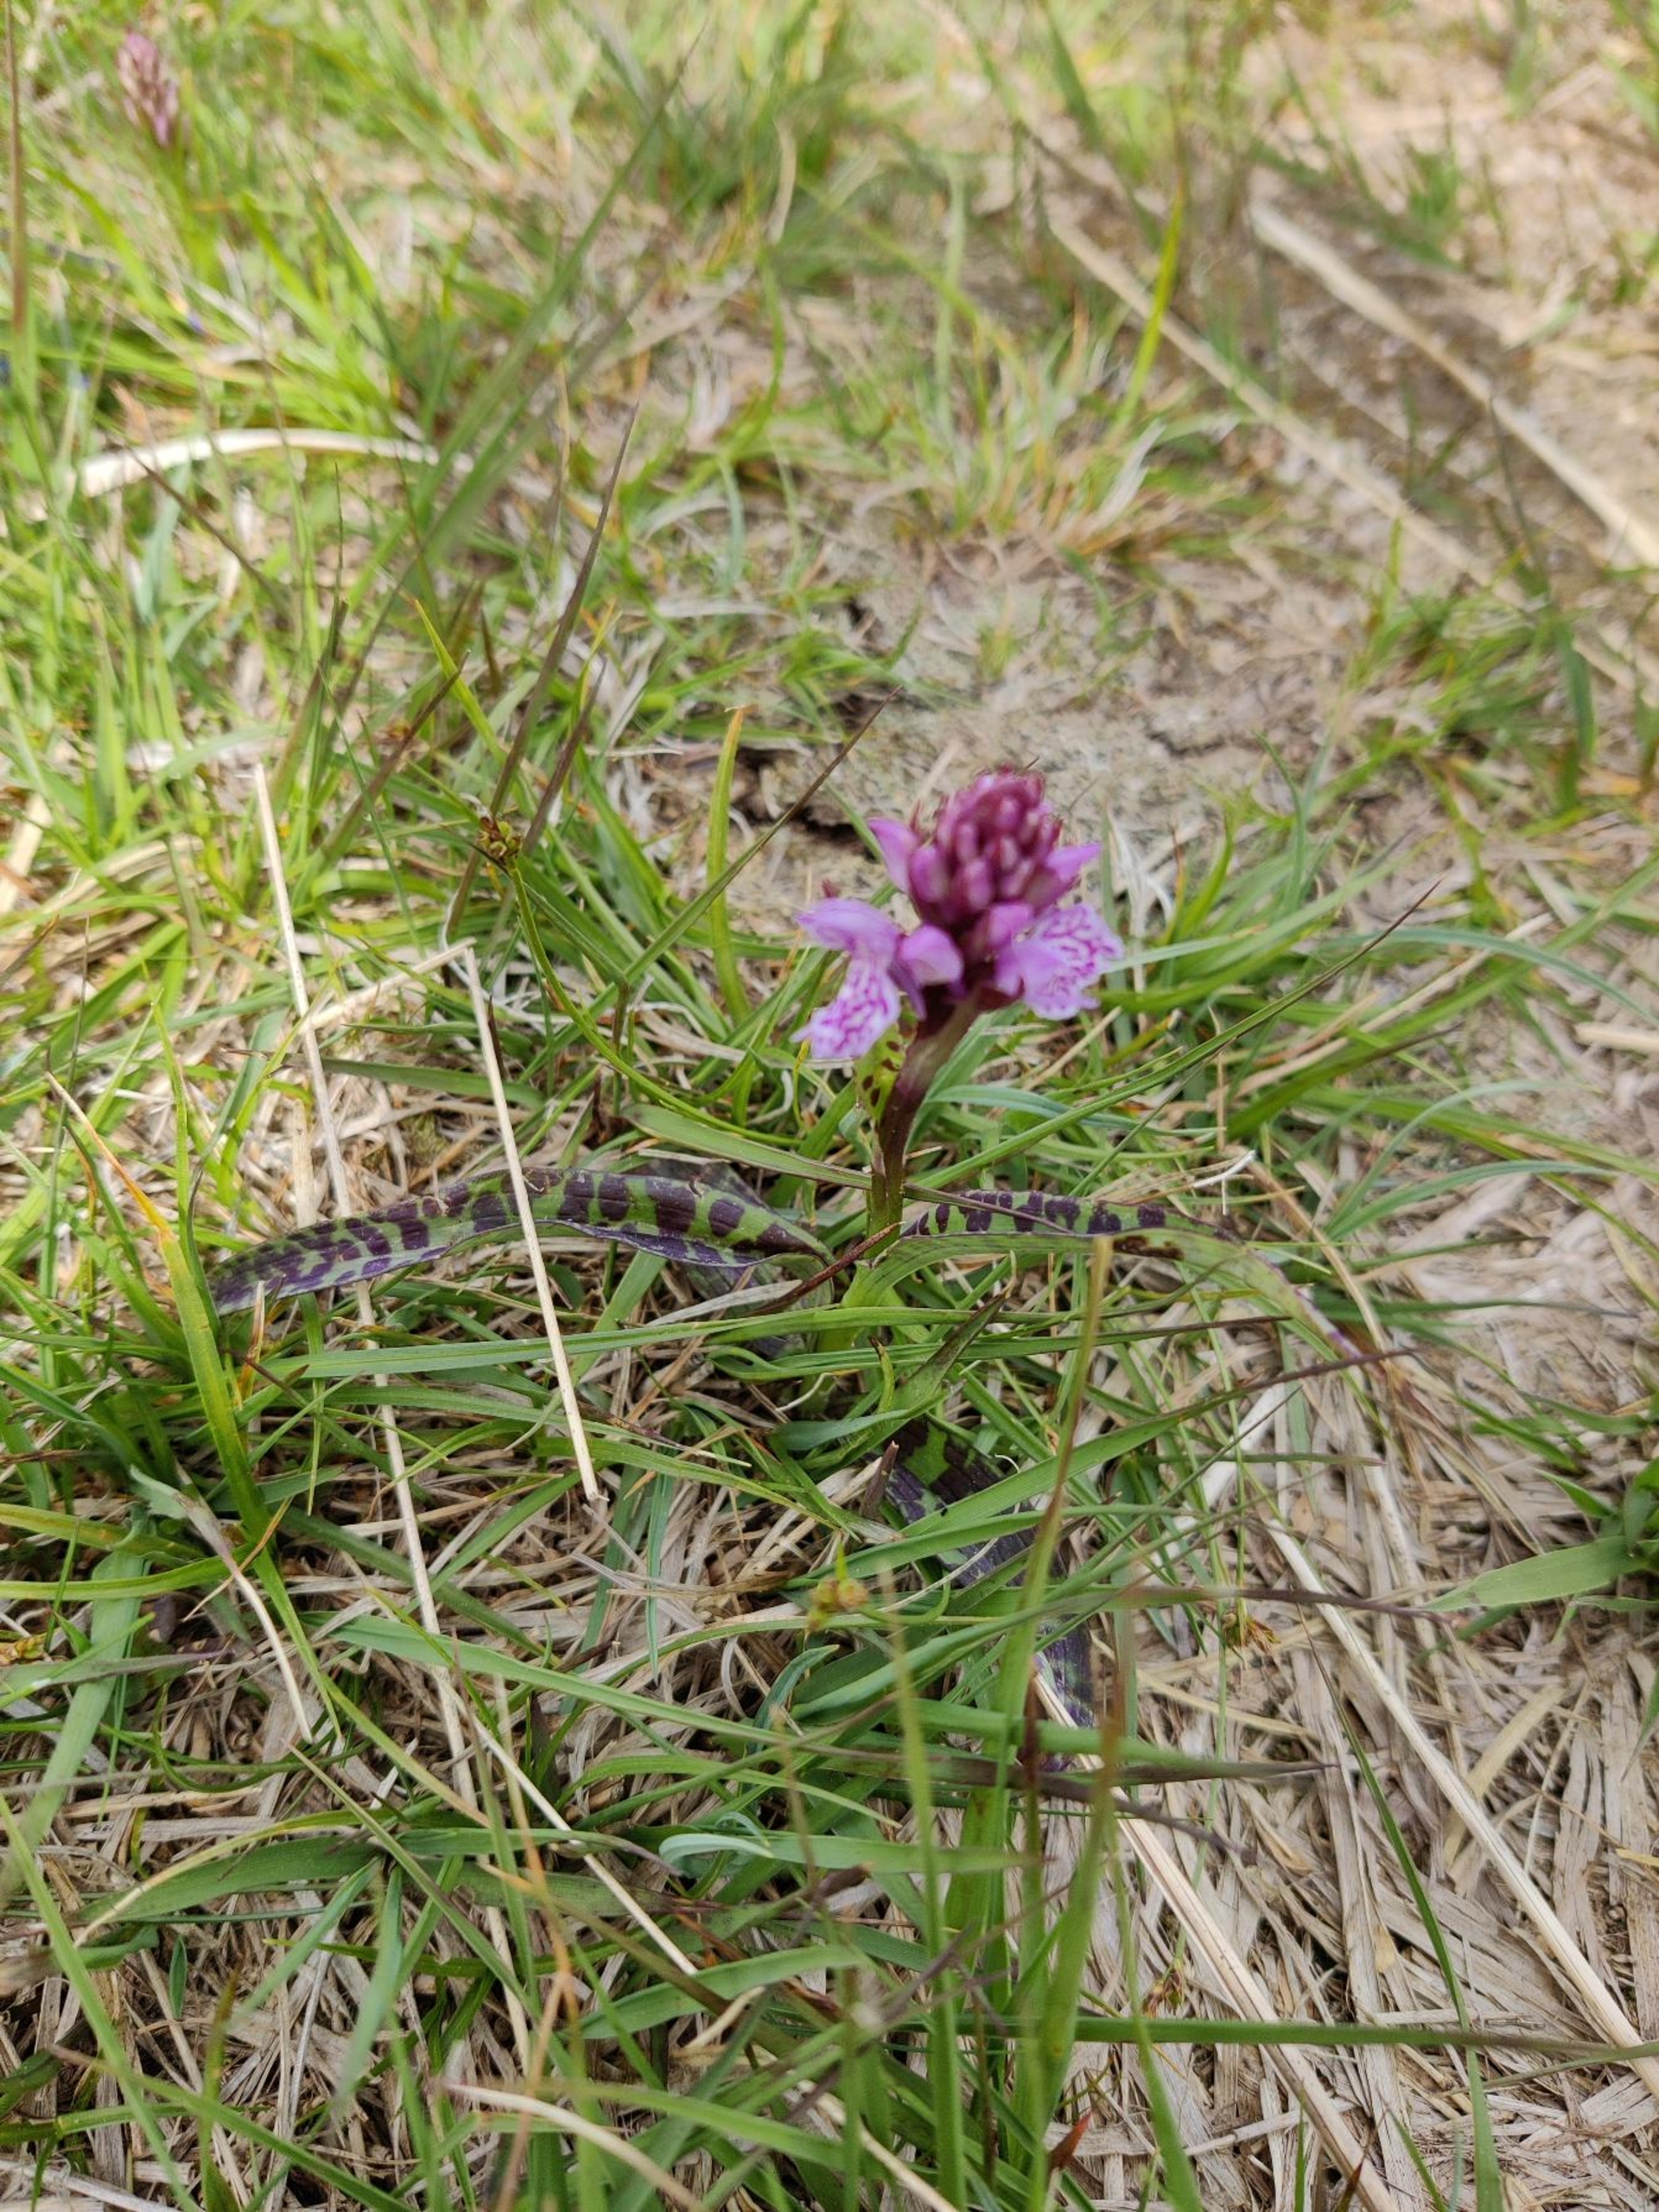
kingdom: Plantae
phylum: Tracheophyta
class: Liliopsida
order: Asparagales
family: Orchidaceae
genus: Dactylorhiza
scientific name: Dactylorhiza maculata
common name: Plettet gøgeurt
